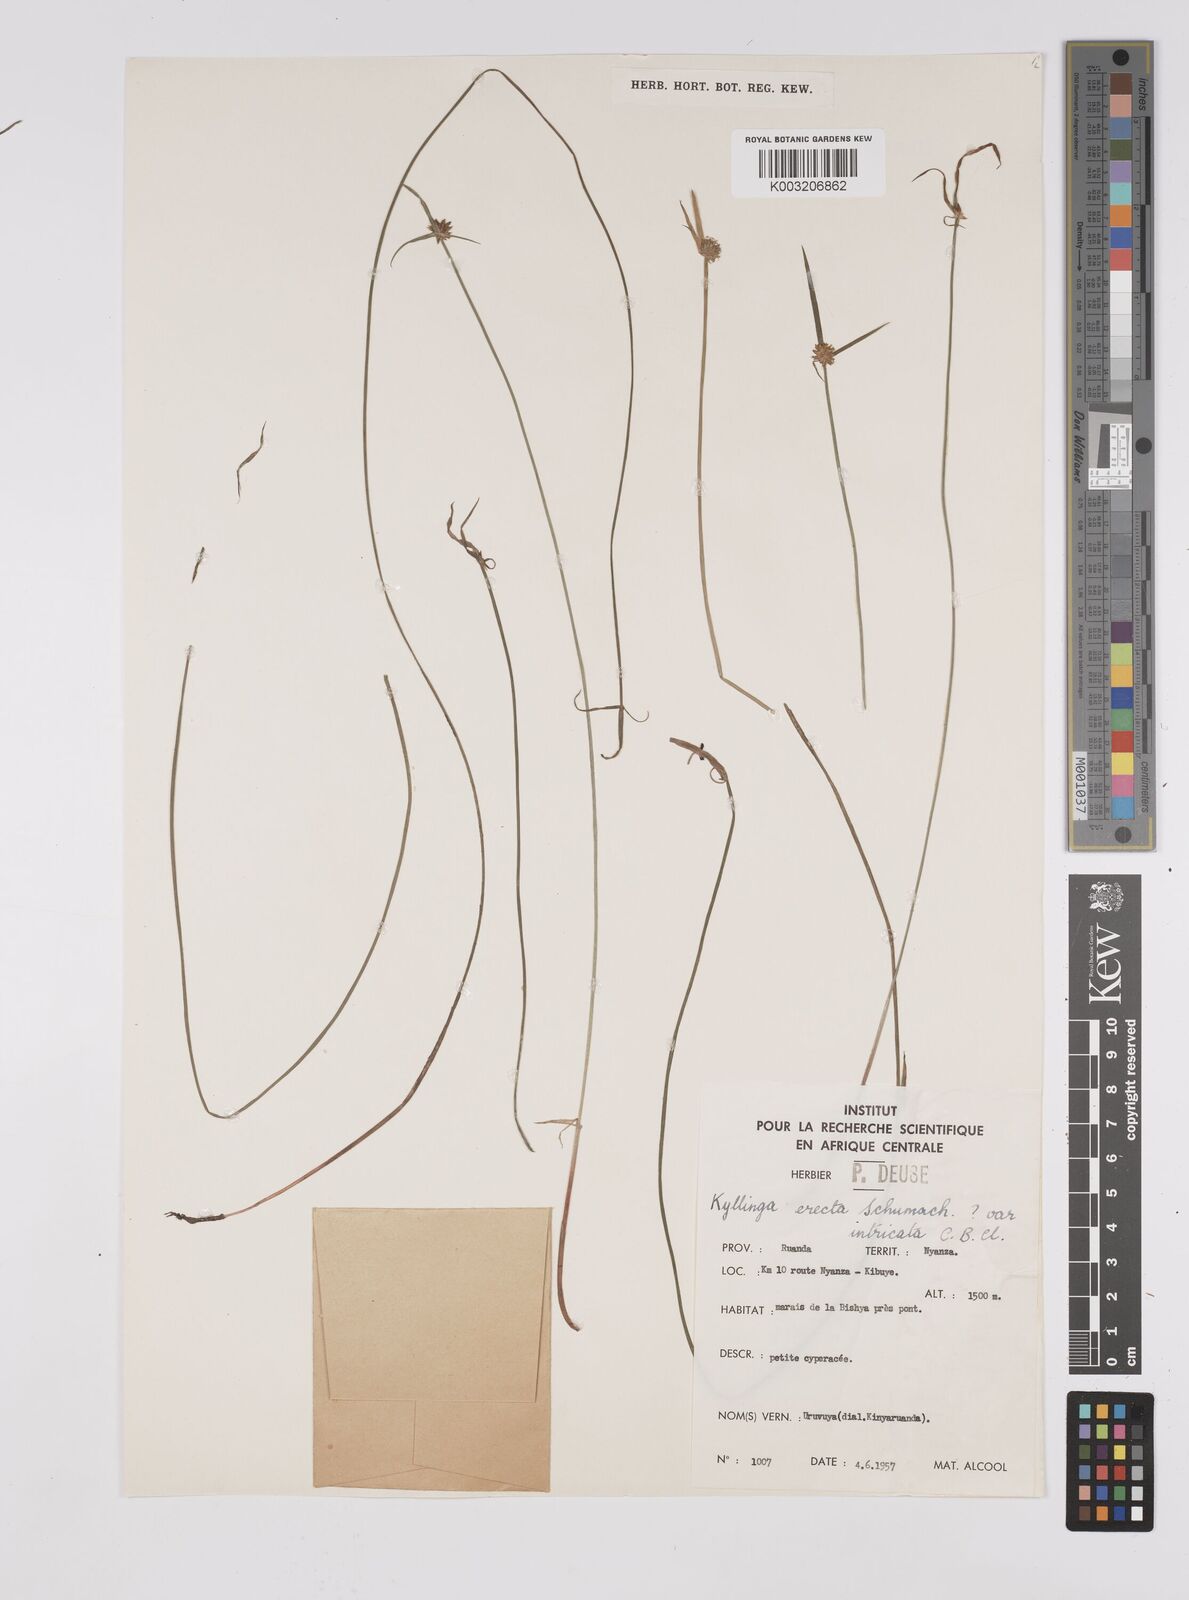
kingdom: Plantae
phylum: Tracheophyta
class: Liliopsida
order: Poales
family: Cyperaceae
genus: Cyperus
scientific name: Cyperus erectus
